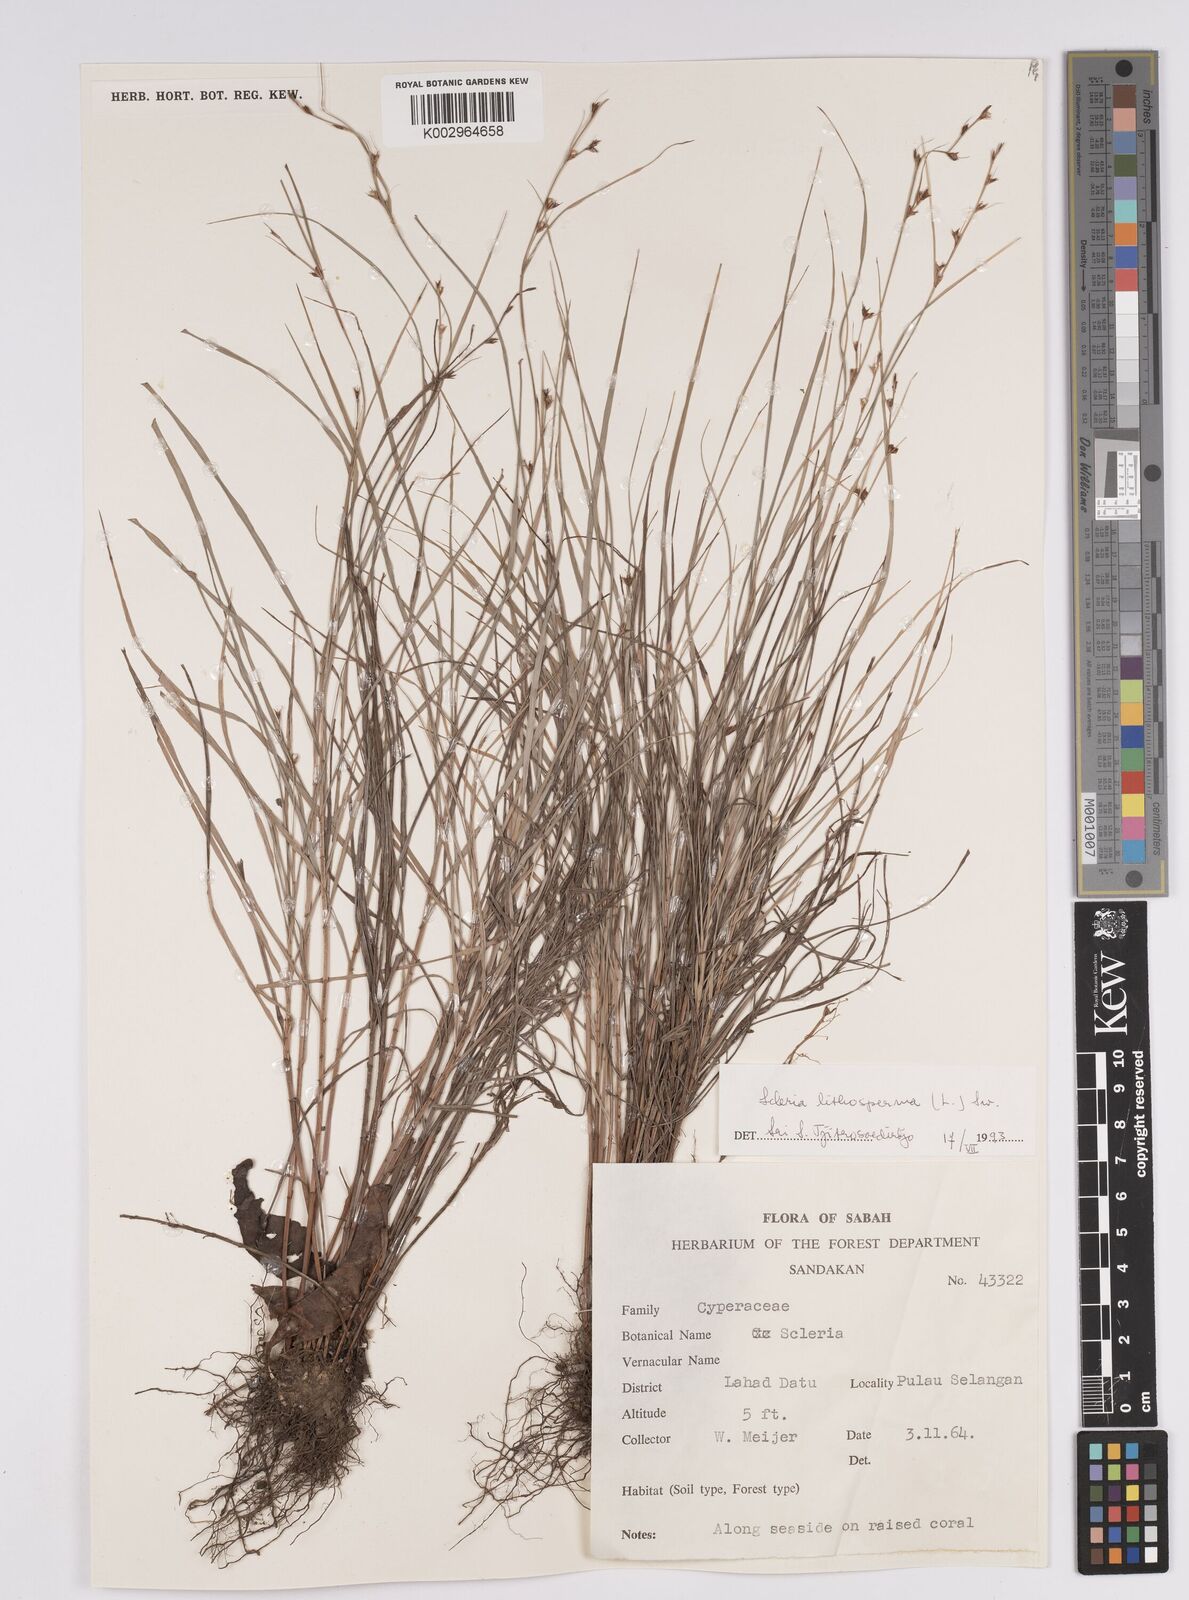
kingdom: Plantae
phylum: Tracheophyta
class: Liliopsida
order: Poales
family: Cyperaceae
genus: Scleria
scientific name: Scleria lithosperma
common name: Florida keys nut-rush
